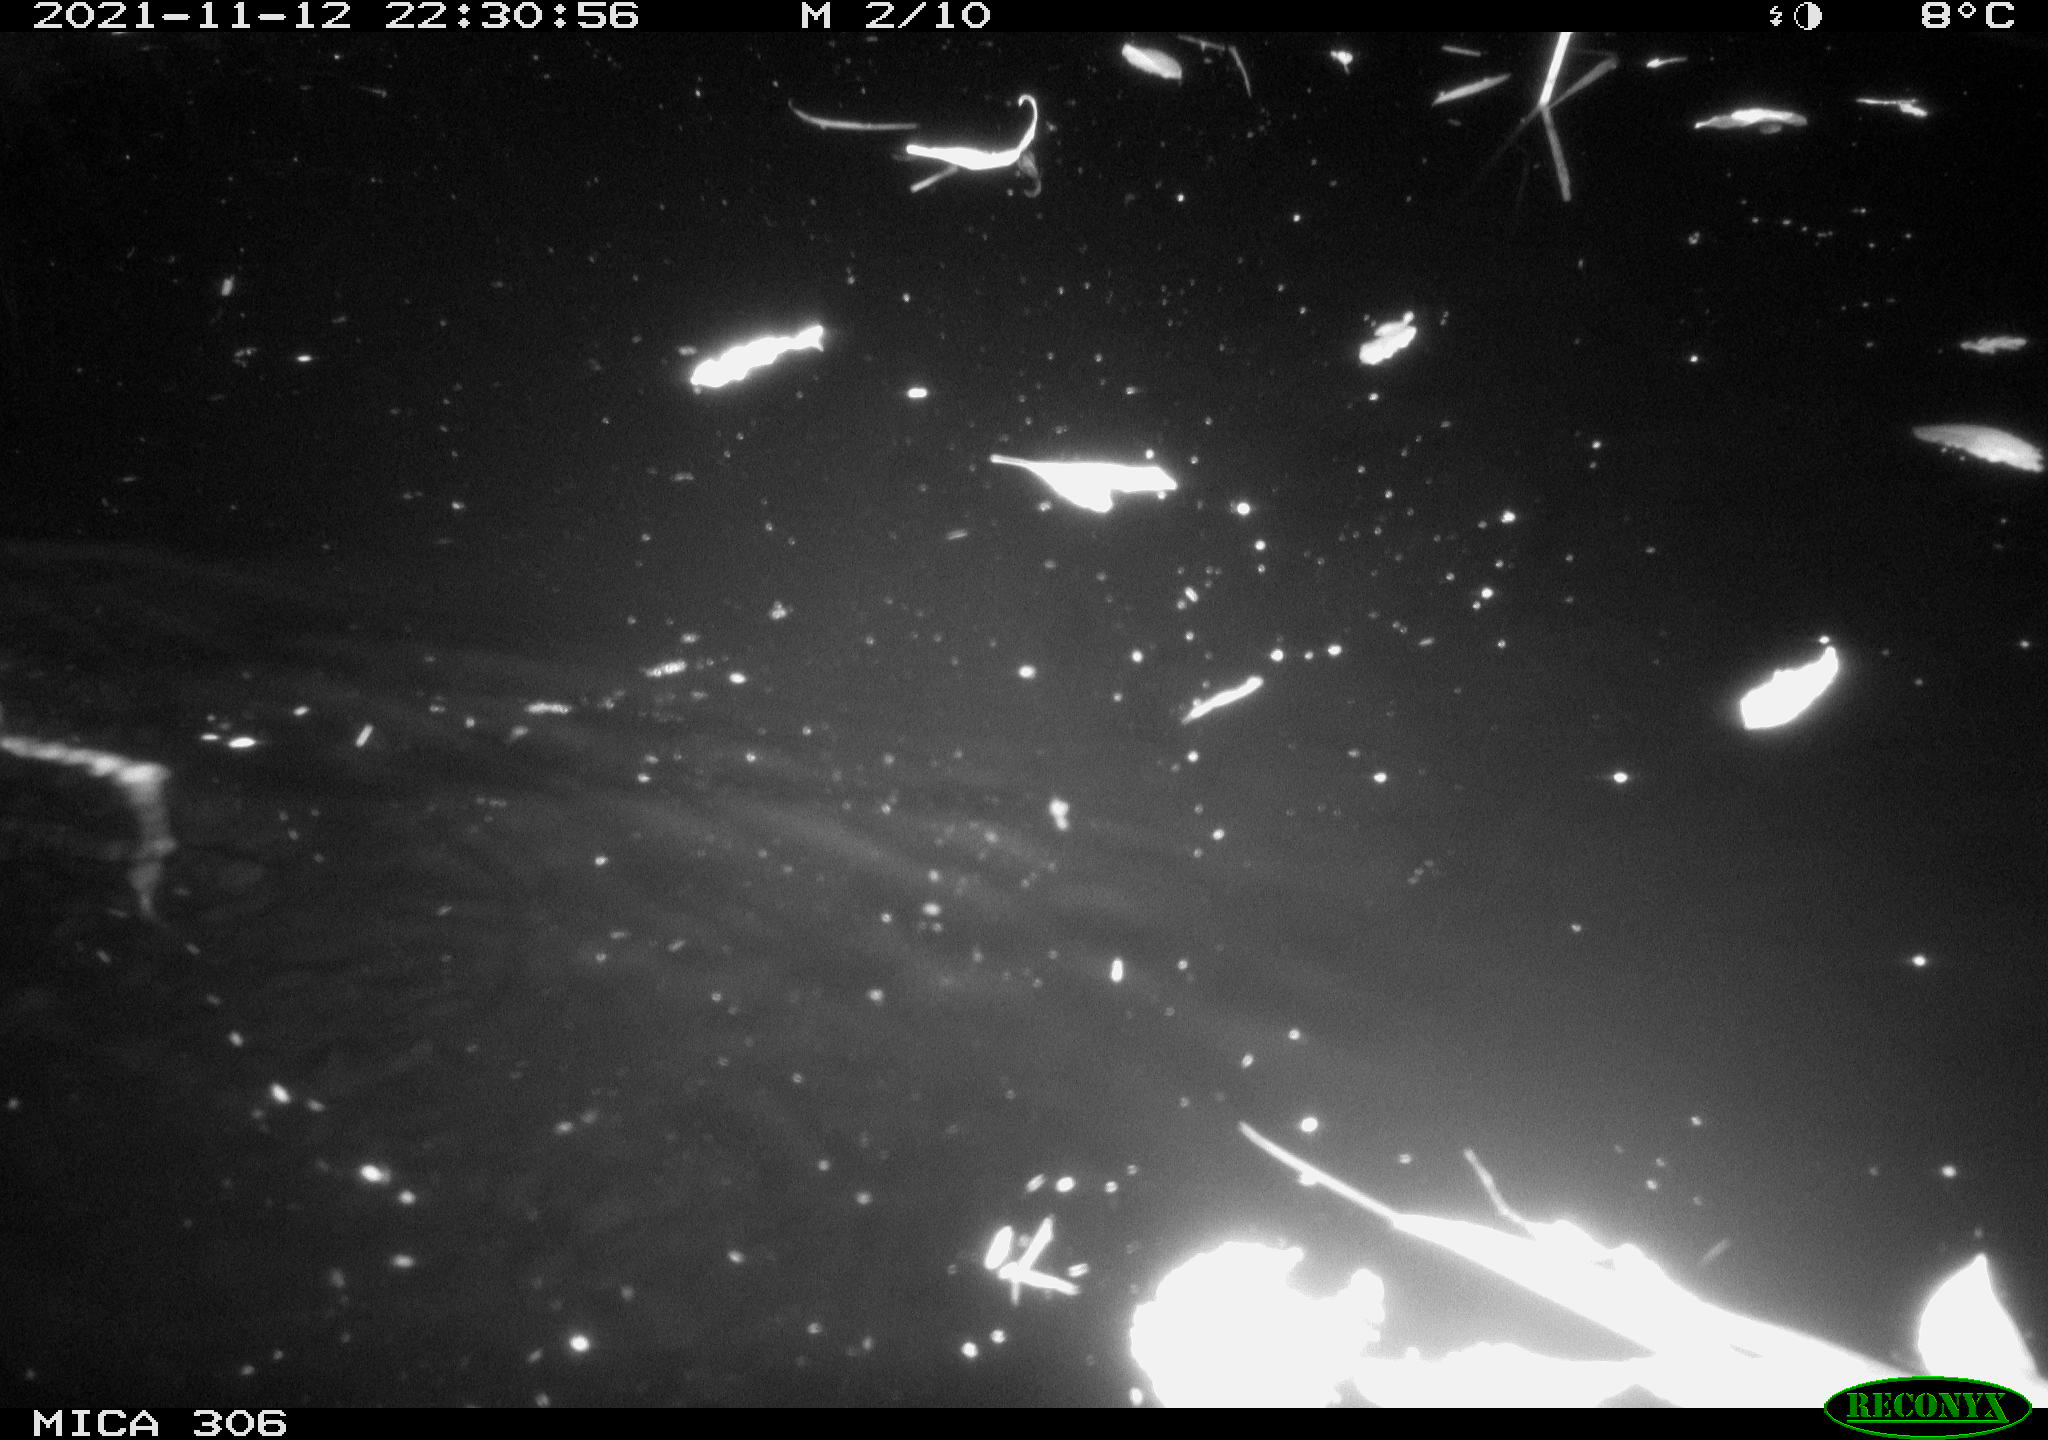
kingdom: Animalia
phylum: Chordata
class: Mammalia
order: Rodentia
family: Muridae
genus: Rattus
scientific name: Rattus norvegicus
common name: Brown rat
